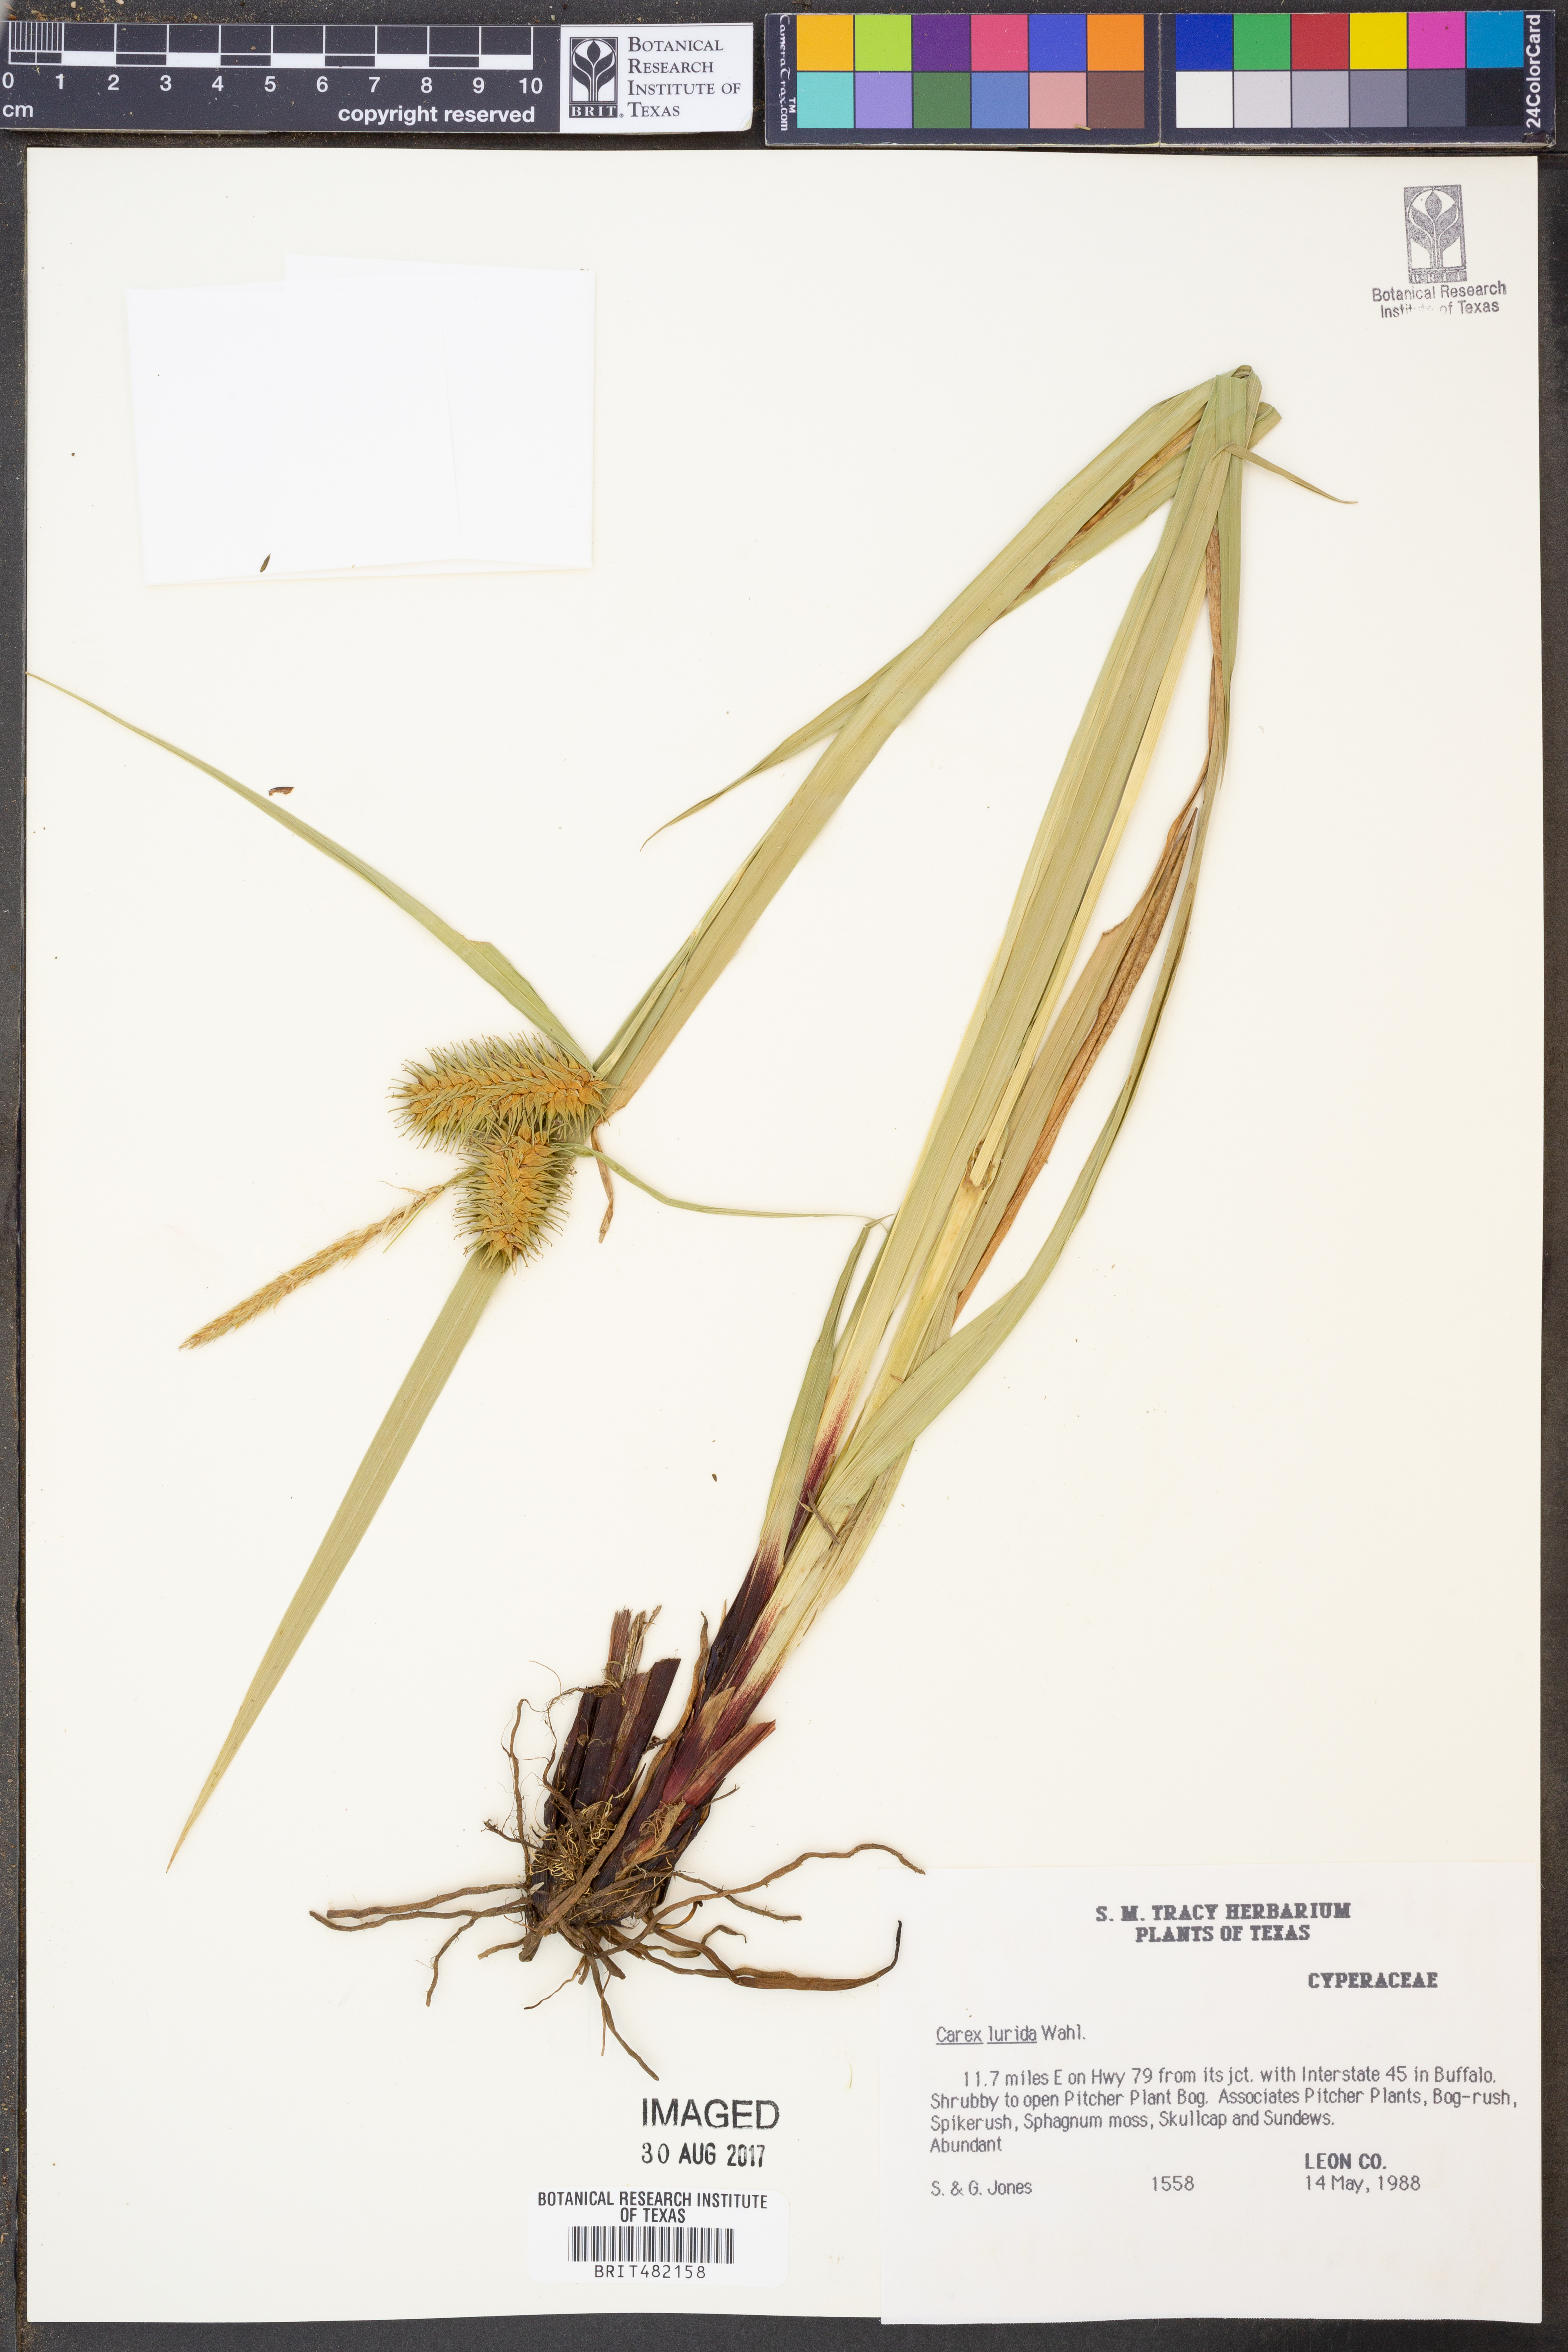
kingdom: Plantae
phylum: Tracheophyta
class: Liliopsida
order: Poales
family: Cyperaceae
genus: Carex
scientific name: Carex lurida
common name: Sallow sedge
